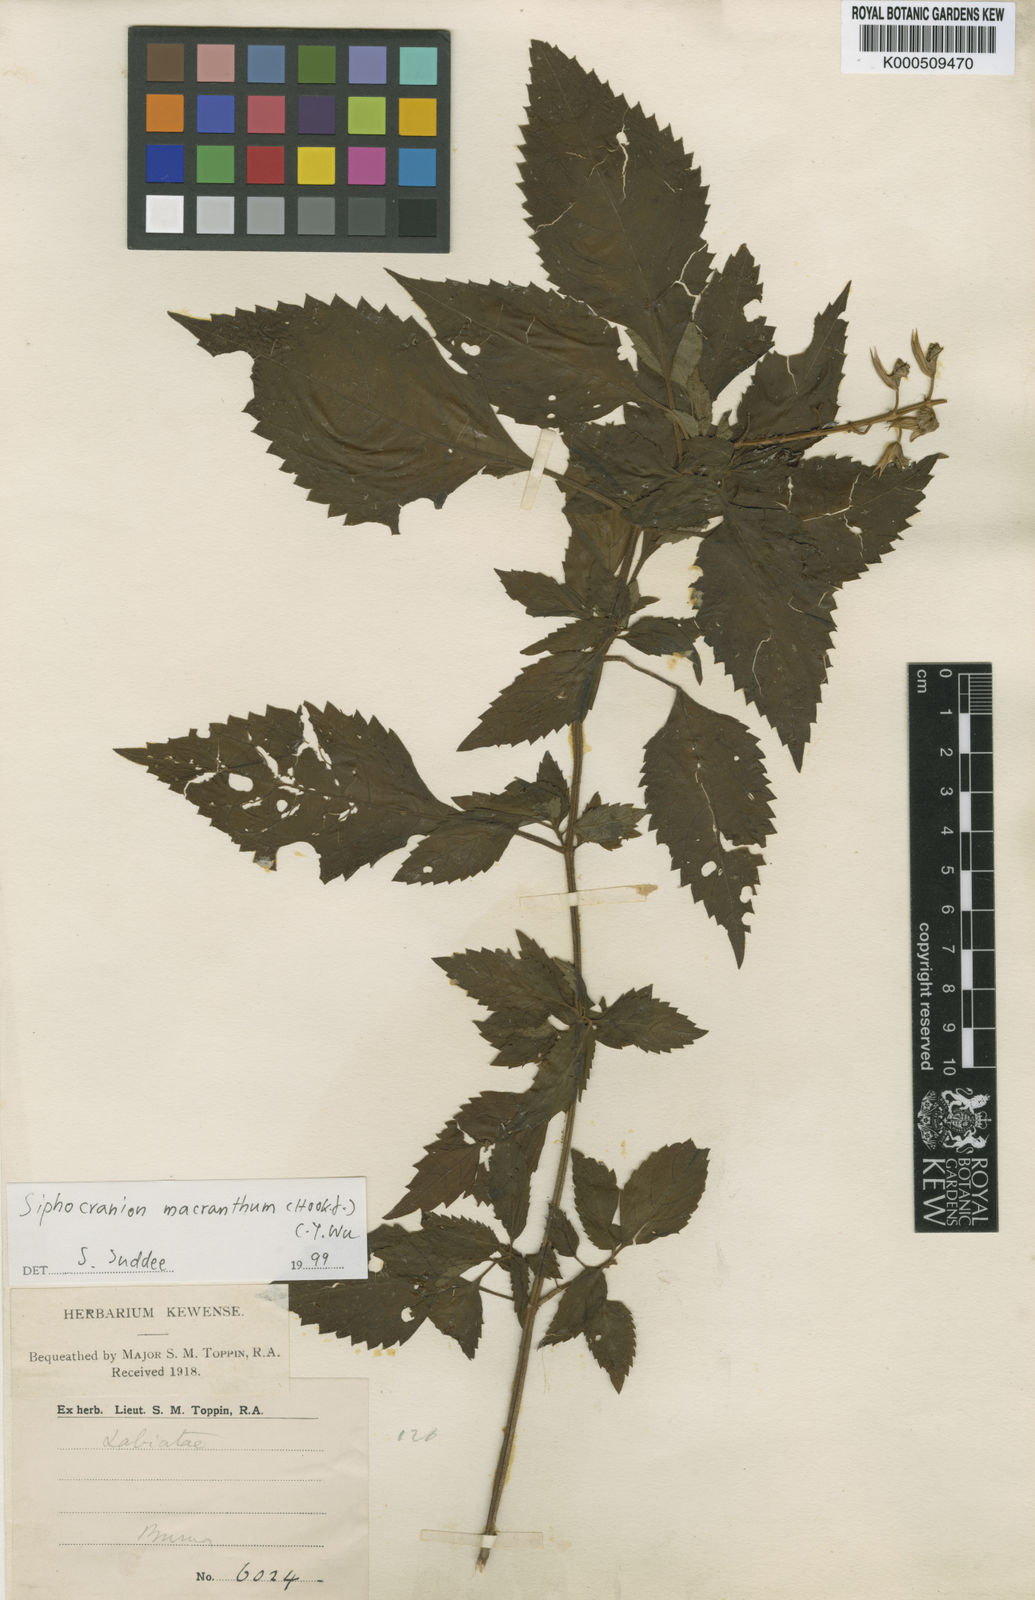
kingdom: Plantae
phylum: Tracheophyta
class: Magnoliopsida
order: Lamiales
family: Lamiaceae
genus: Siphocranion
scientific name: Siphocranion macranthum
